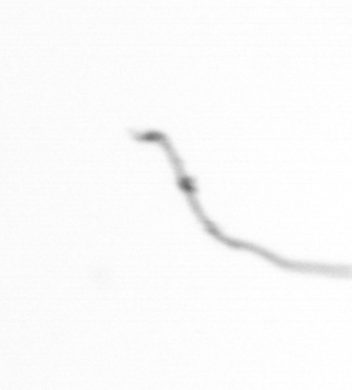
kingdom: Chromista
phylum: Ochrophyta
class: Bacillariophyceae
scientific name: Bacillariophyceae
